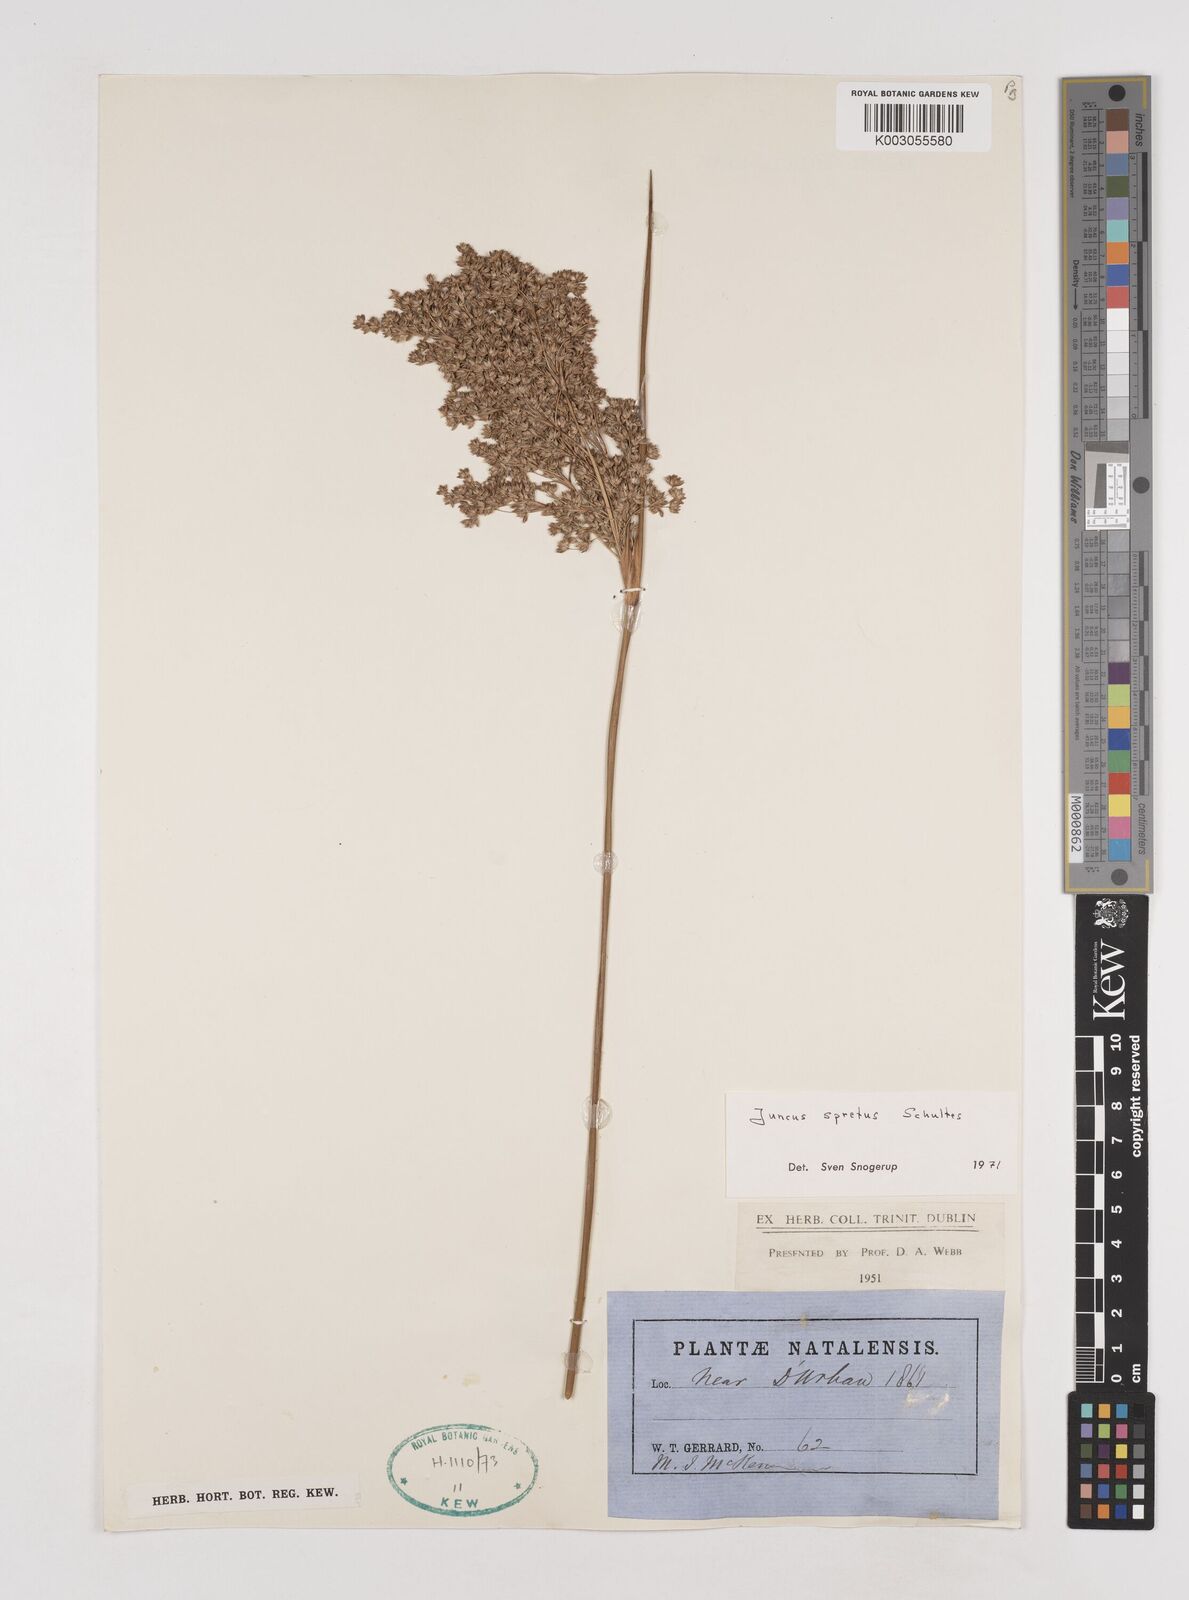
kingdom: Plantae
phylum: Tracheophyta
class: Liliopsida
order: Poales
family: Juncaceae
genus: Juncus
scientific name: Juncus kraussii
